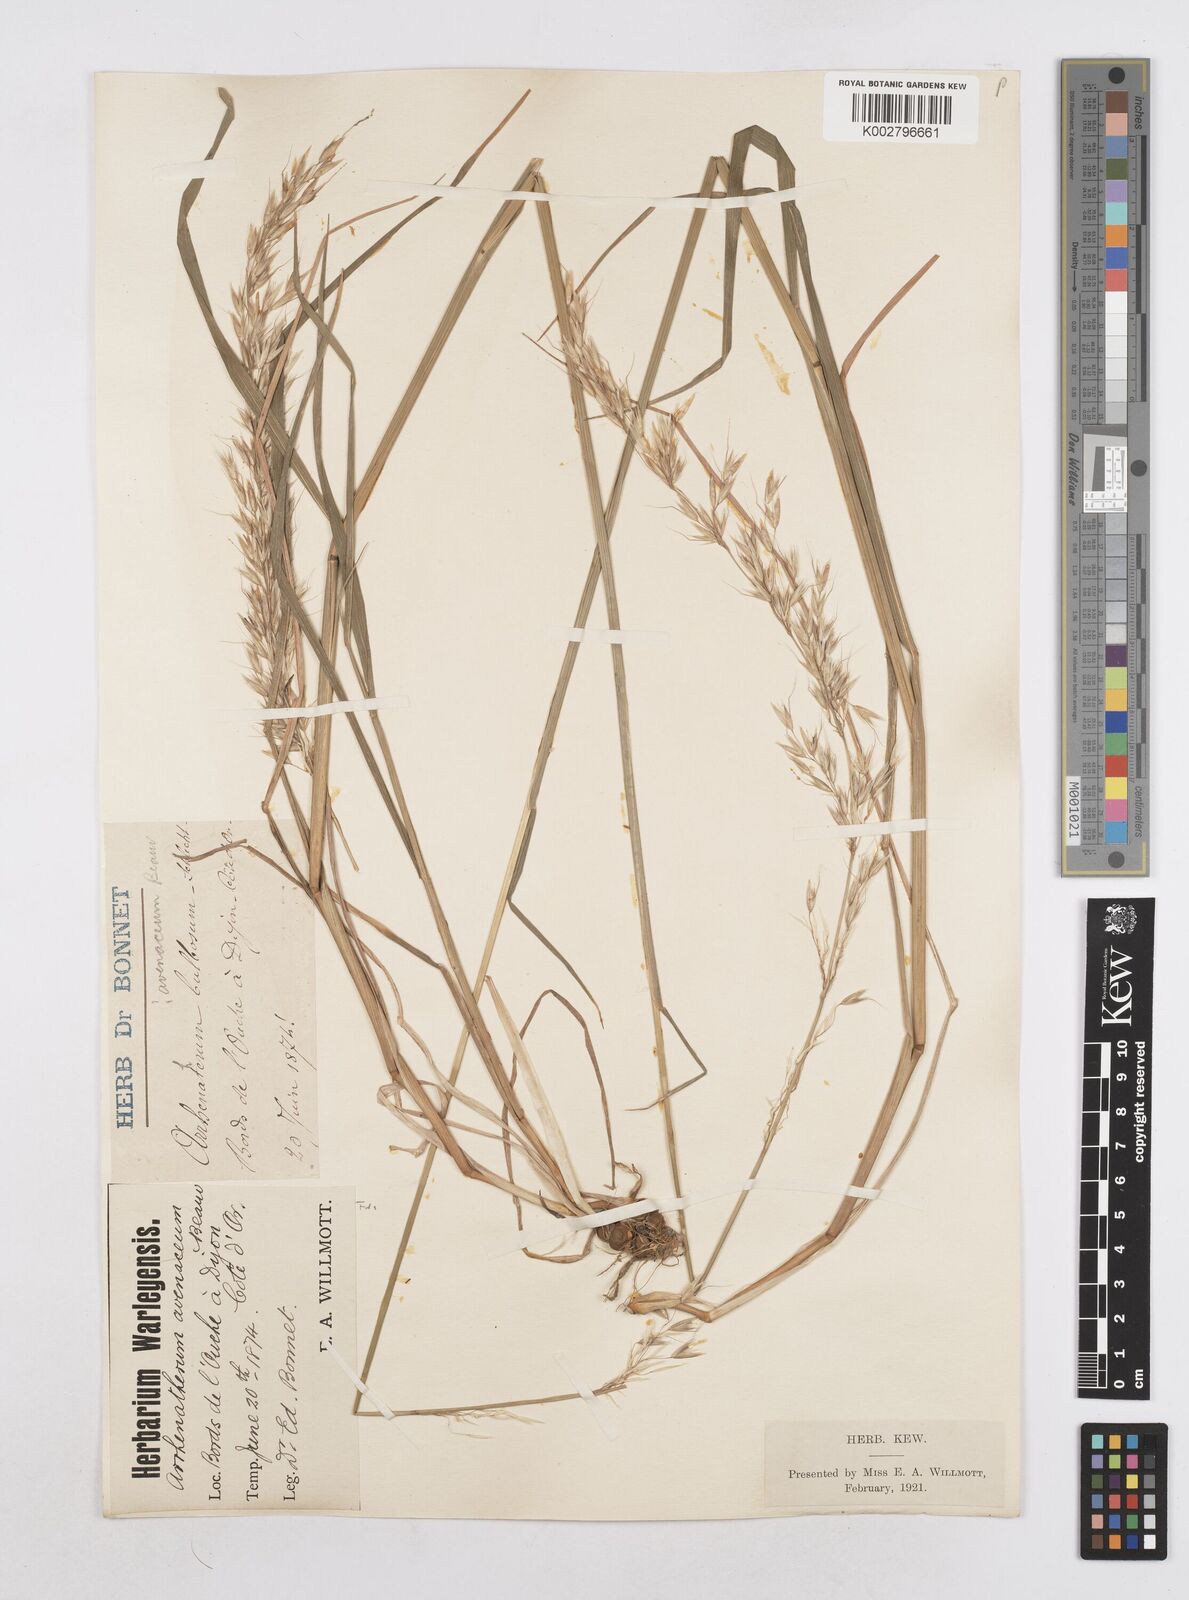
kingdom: Plantae
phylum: Tracheophyta
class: Liliopsida
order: Poales
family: Poaceae
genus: Arrhenatherum
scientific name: Arrhenatherum elatius
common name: Tall oatgrass
